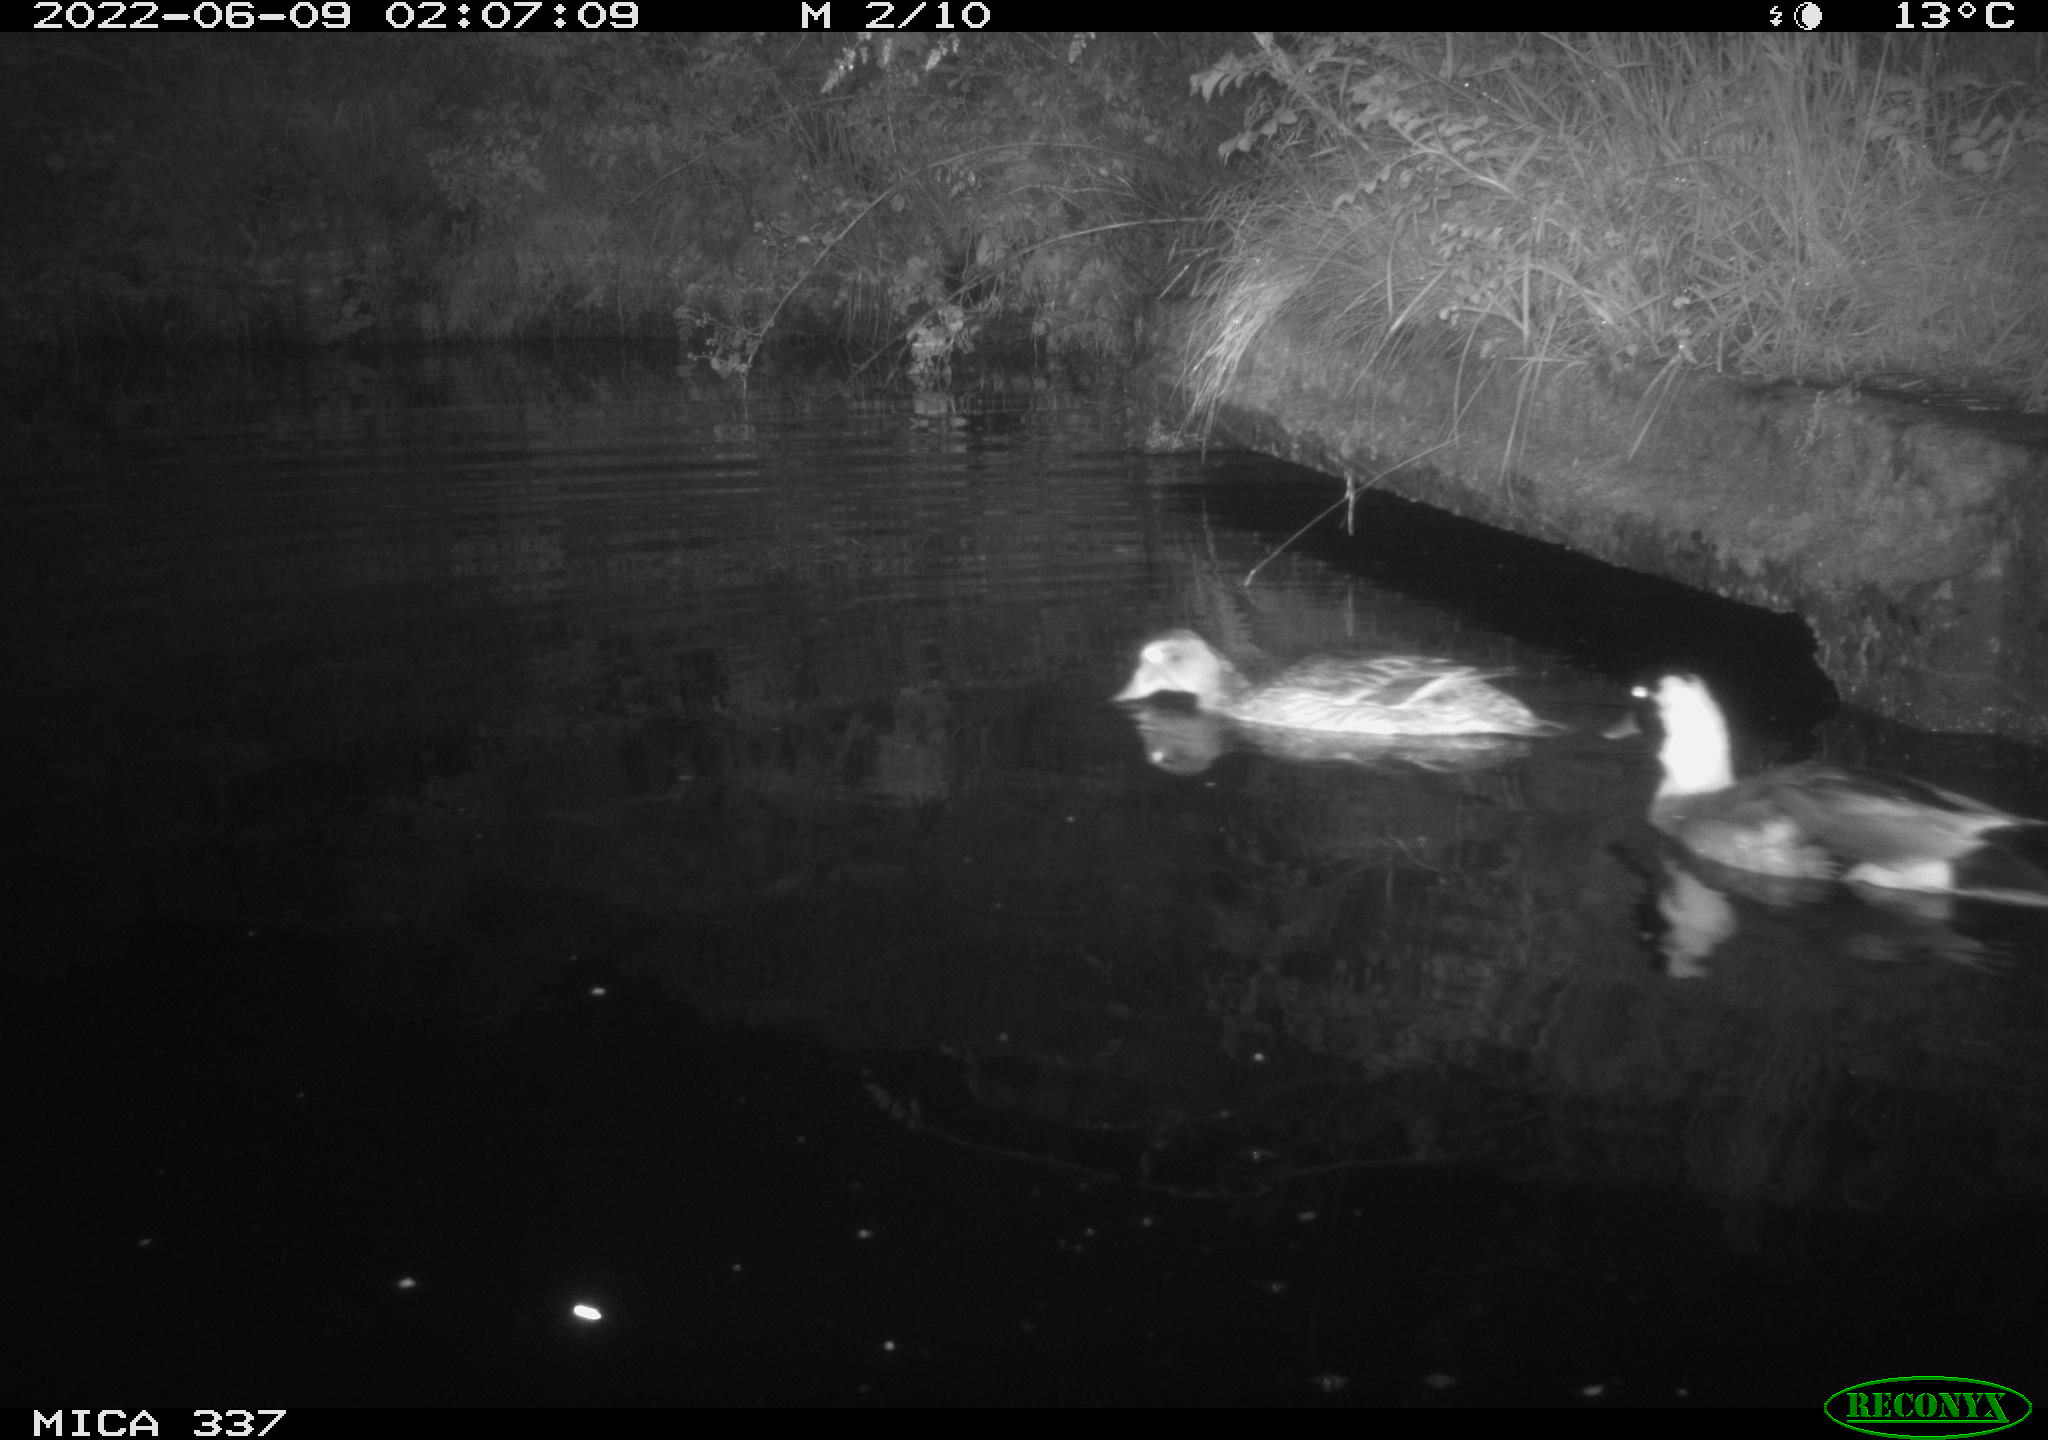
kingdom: Animalia
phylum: Chordata
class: Aves
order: Anseriformes
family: Anatidae
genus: Anas
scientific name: Anas platyrhynchos
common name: Mallard
